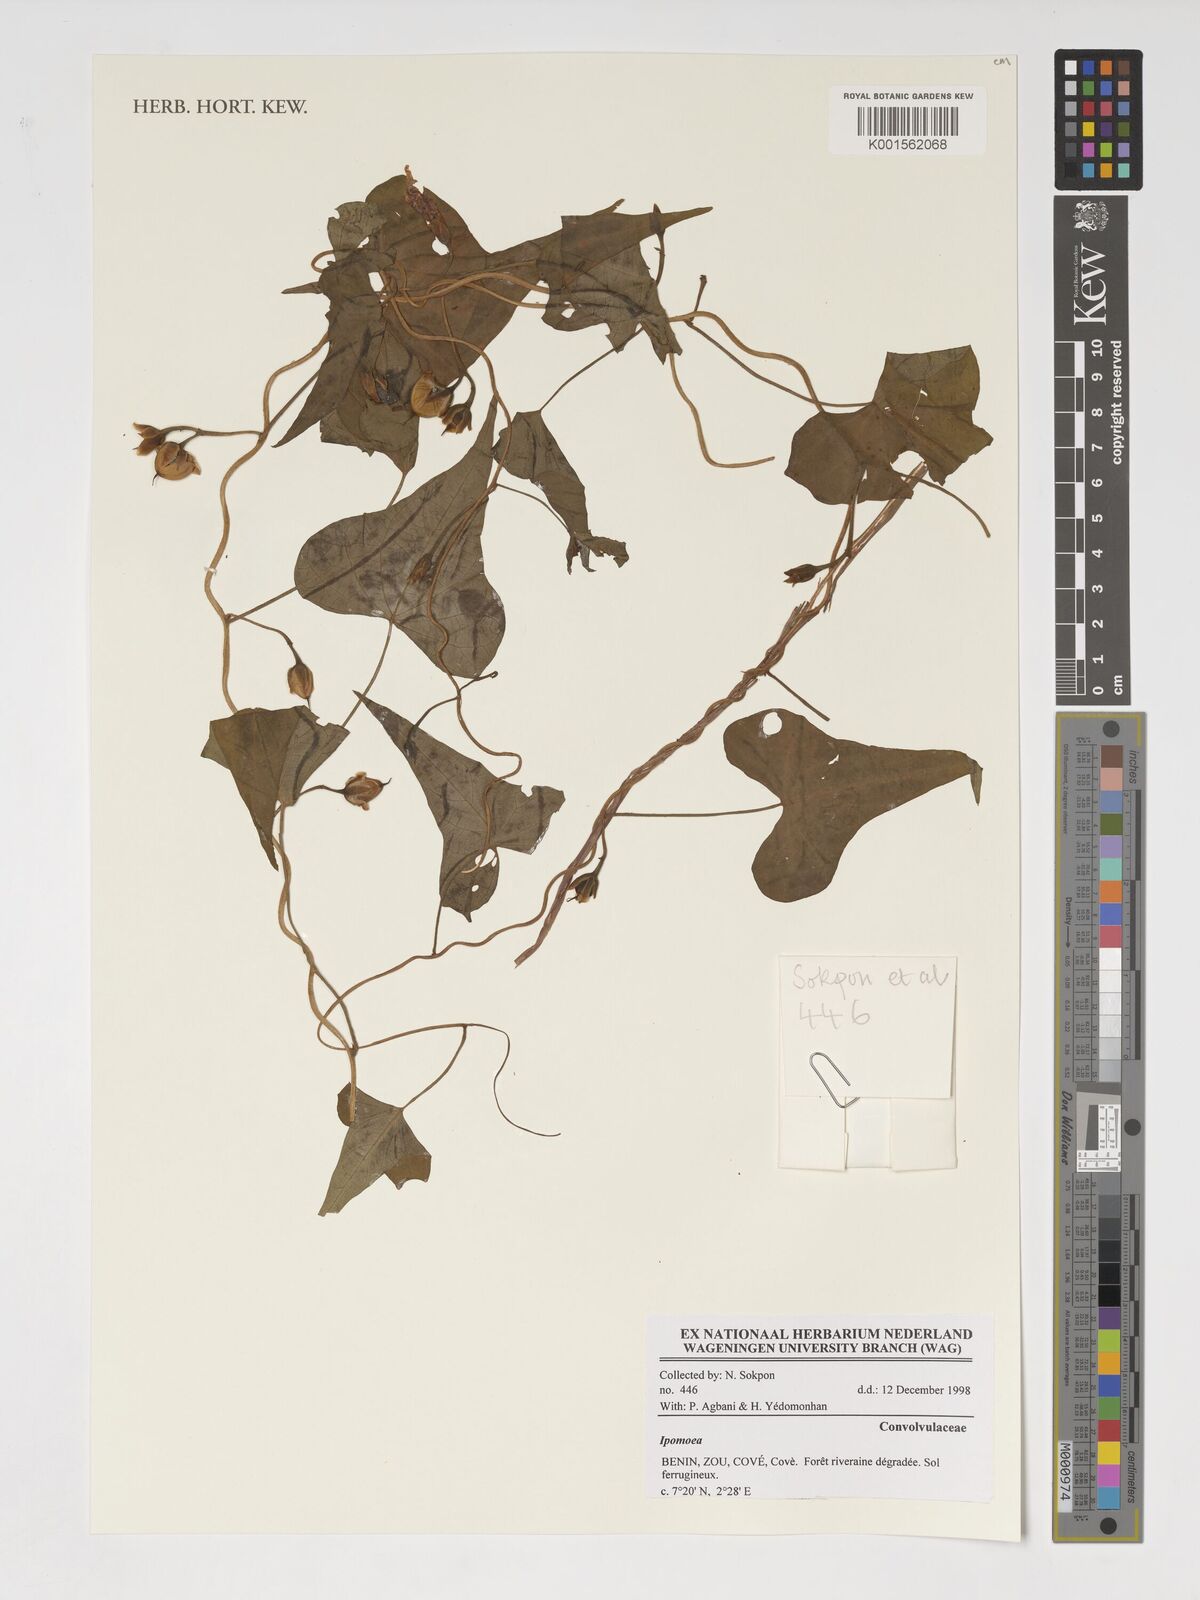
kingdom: Plantae
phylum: Tracheophyta
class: Magnoliopsida
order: Solanales
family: Convolvulaceae
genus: Ipomoea
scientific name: Ipomoea
